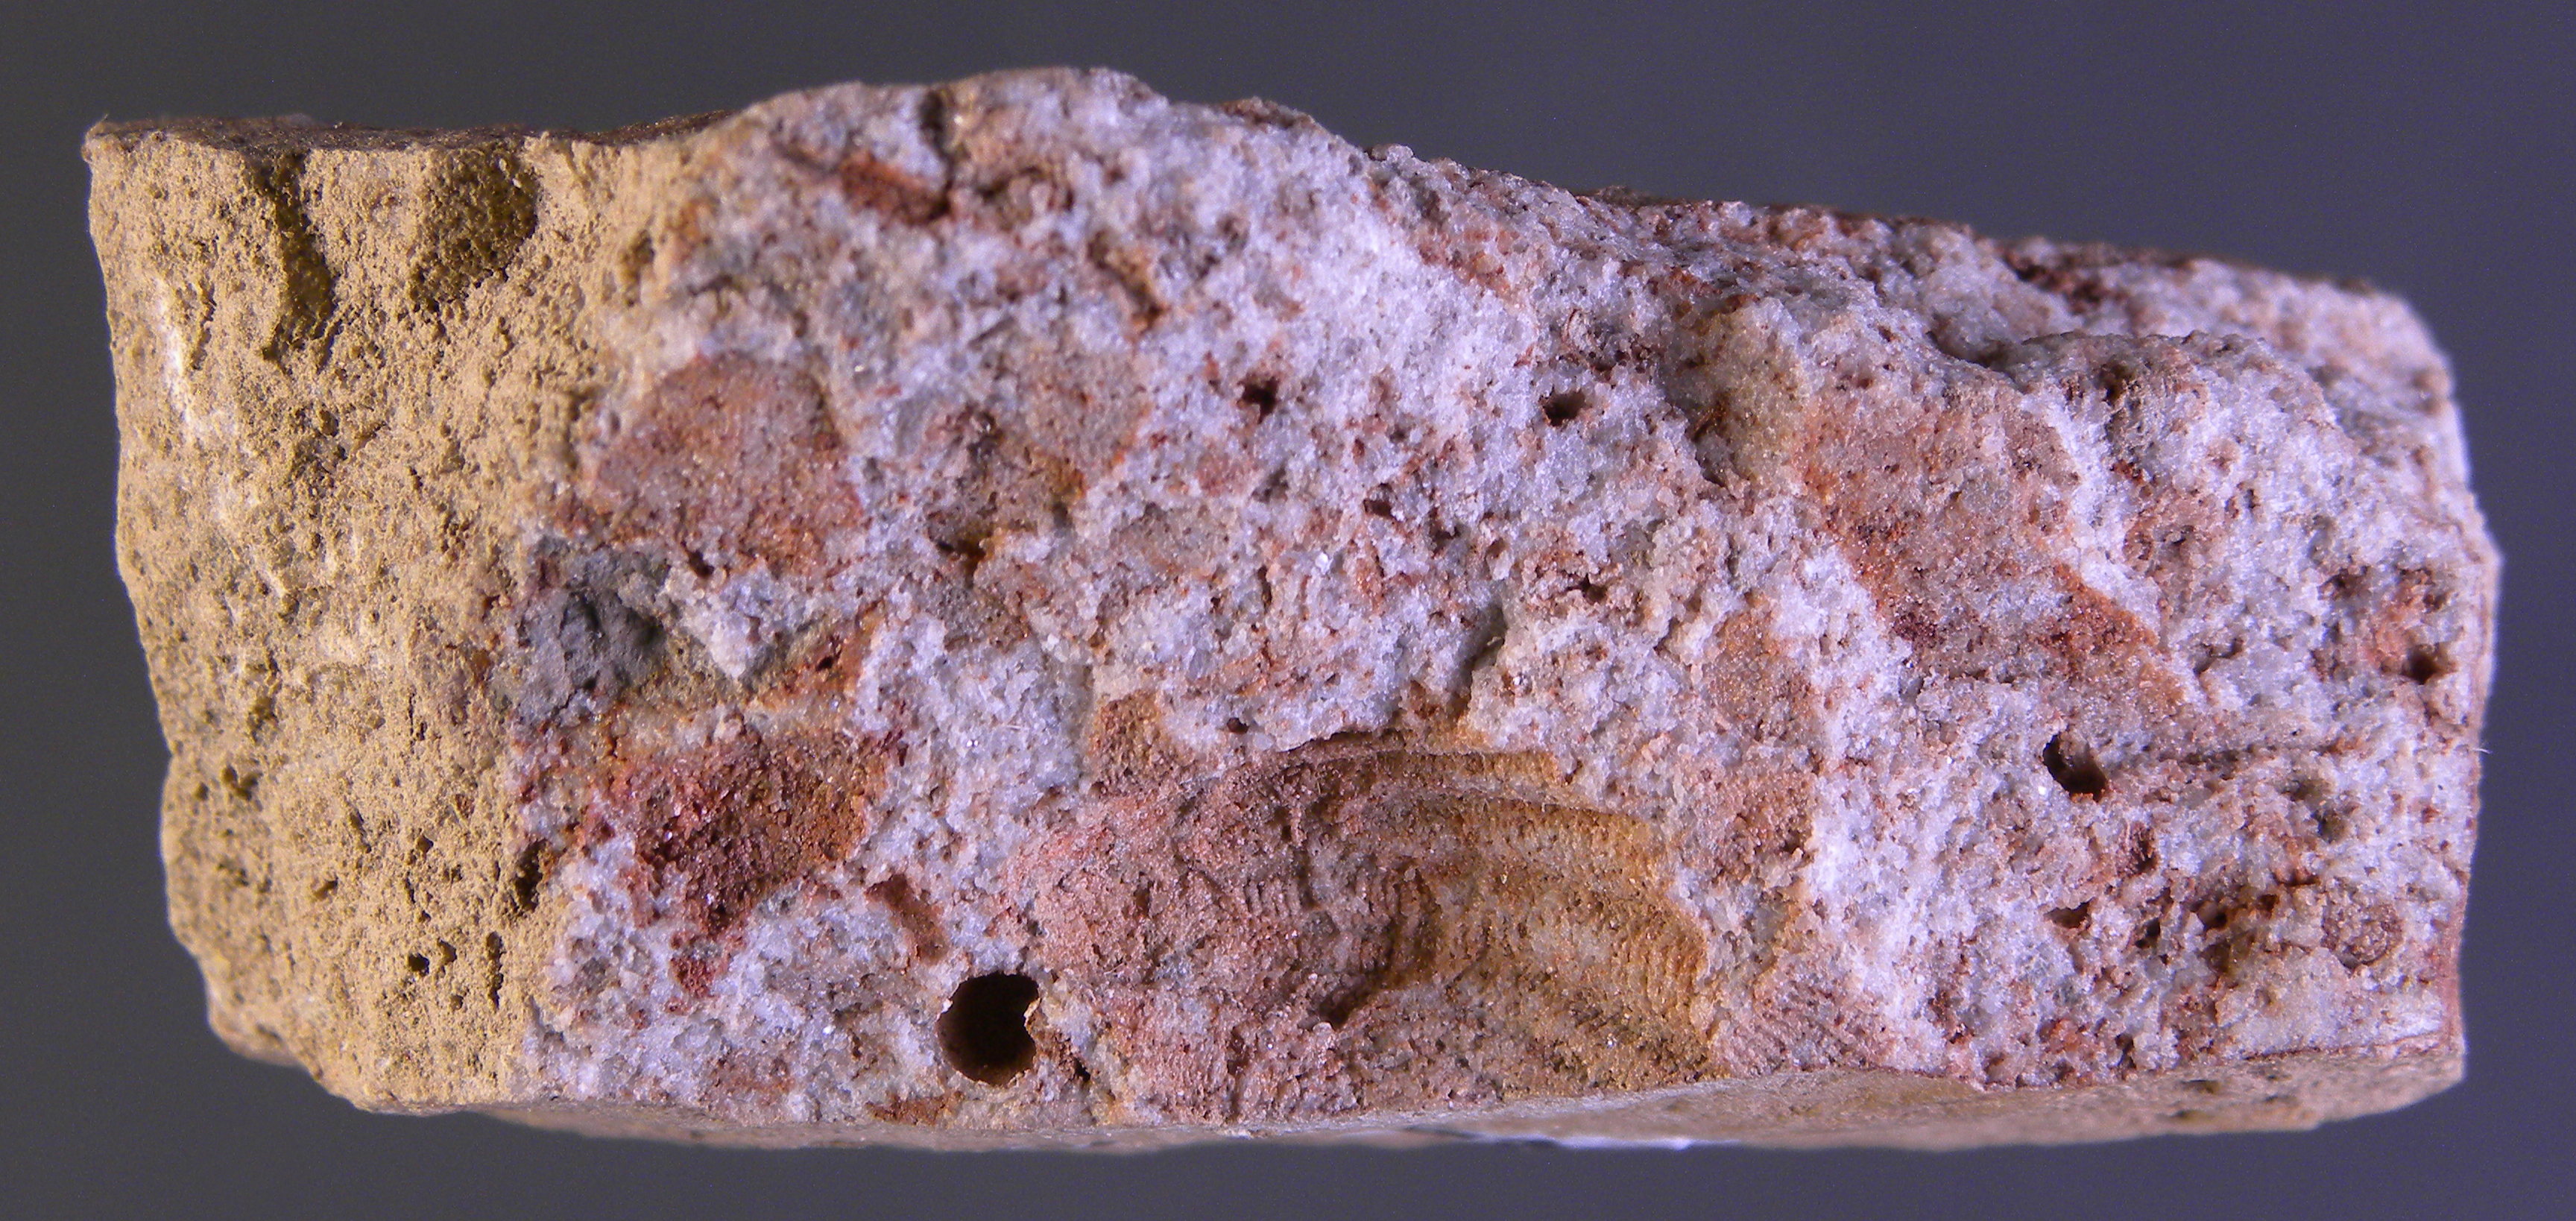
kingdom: Animalia
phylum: Mollusca
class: Bivalvia
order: Ostreida
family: Pterineidae
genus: Ptychopteria
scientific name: Ptychopteria
